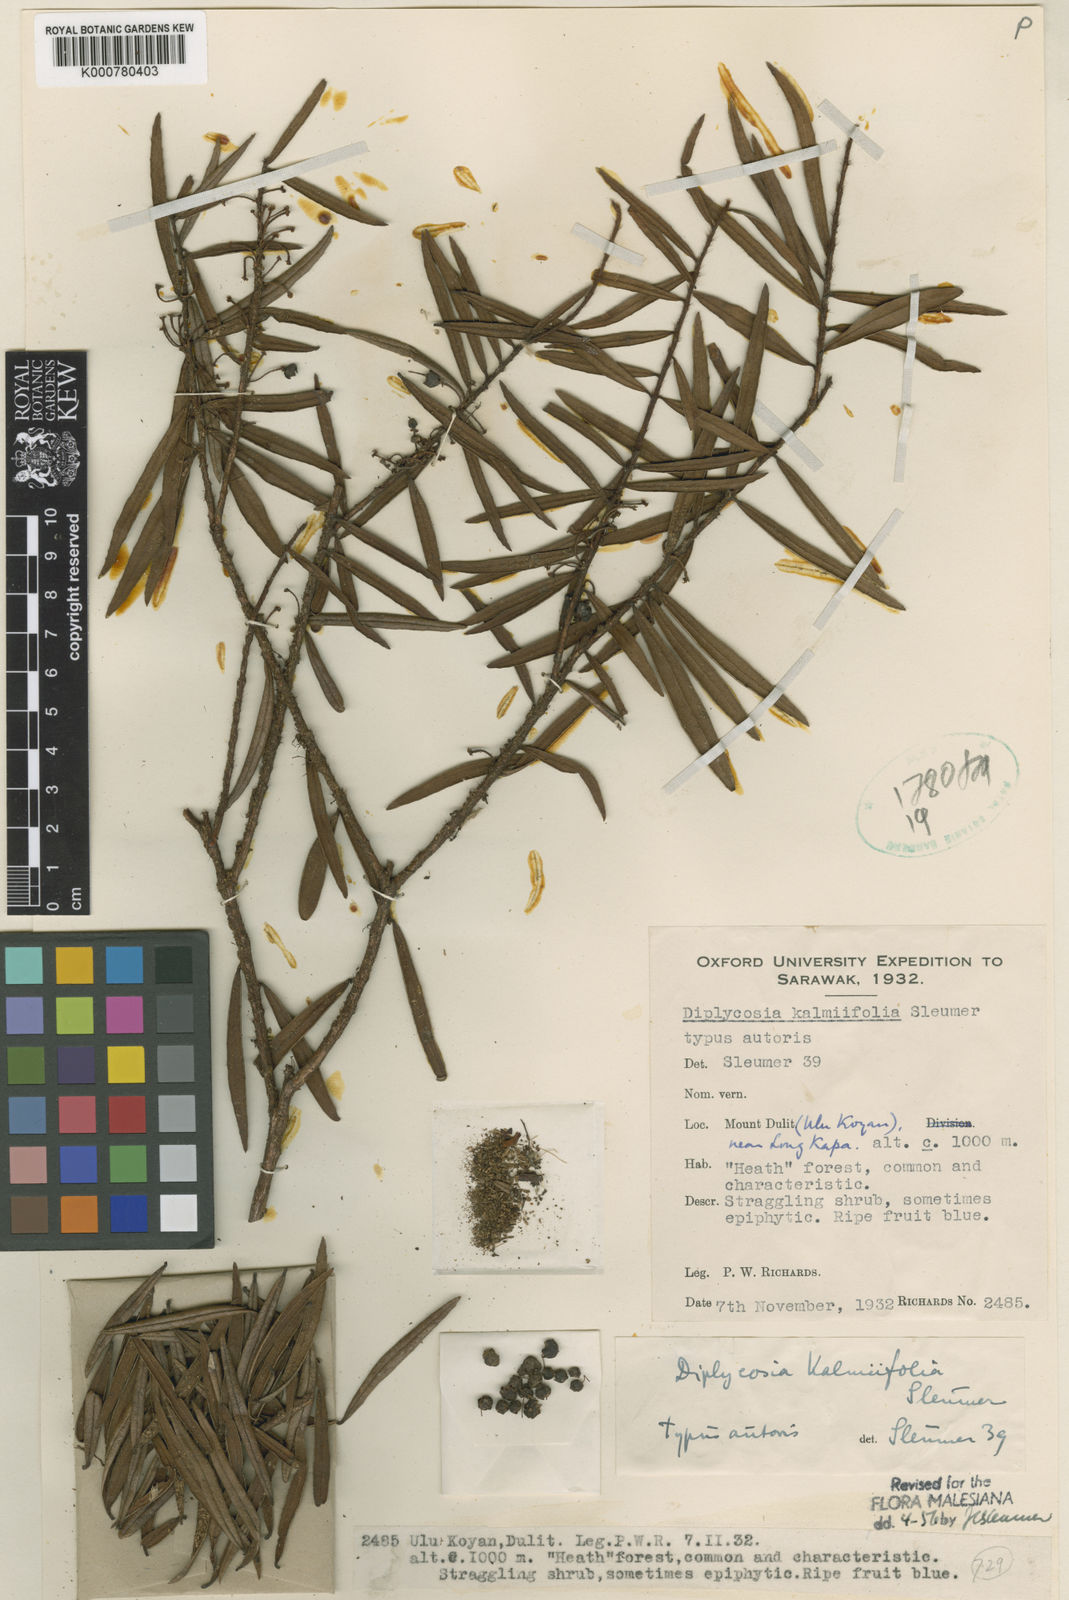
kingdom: Plantae
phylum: Tracheophyta
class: Magnoliopsida
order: Ericales
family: Ericaceae
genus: Gaultheria
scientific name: Gaultheria kalmiifolia
